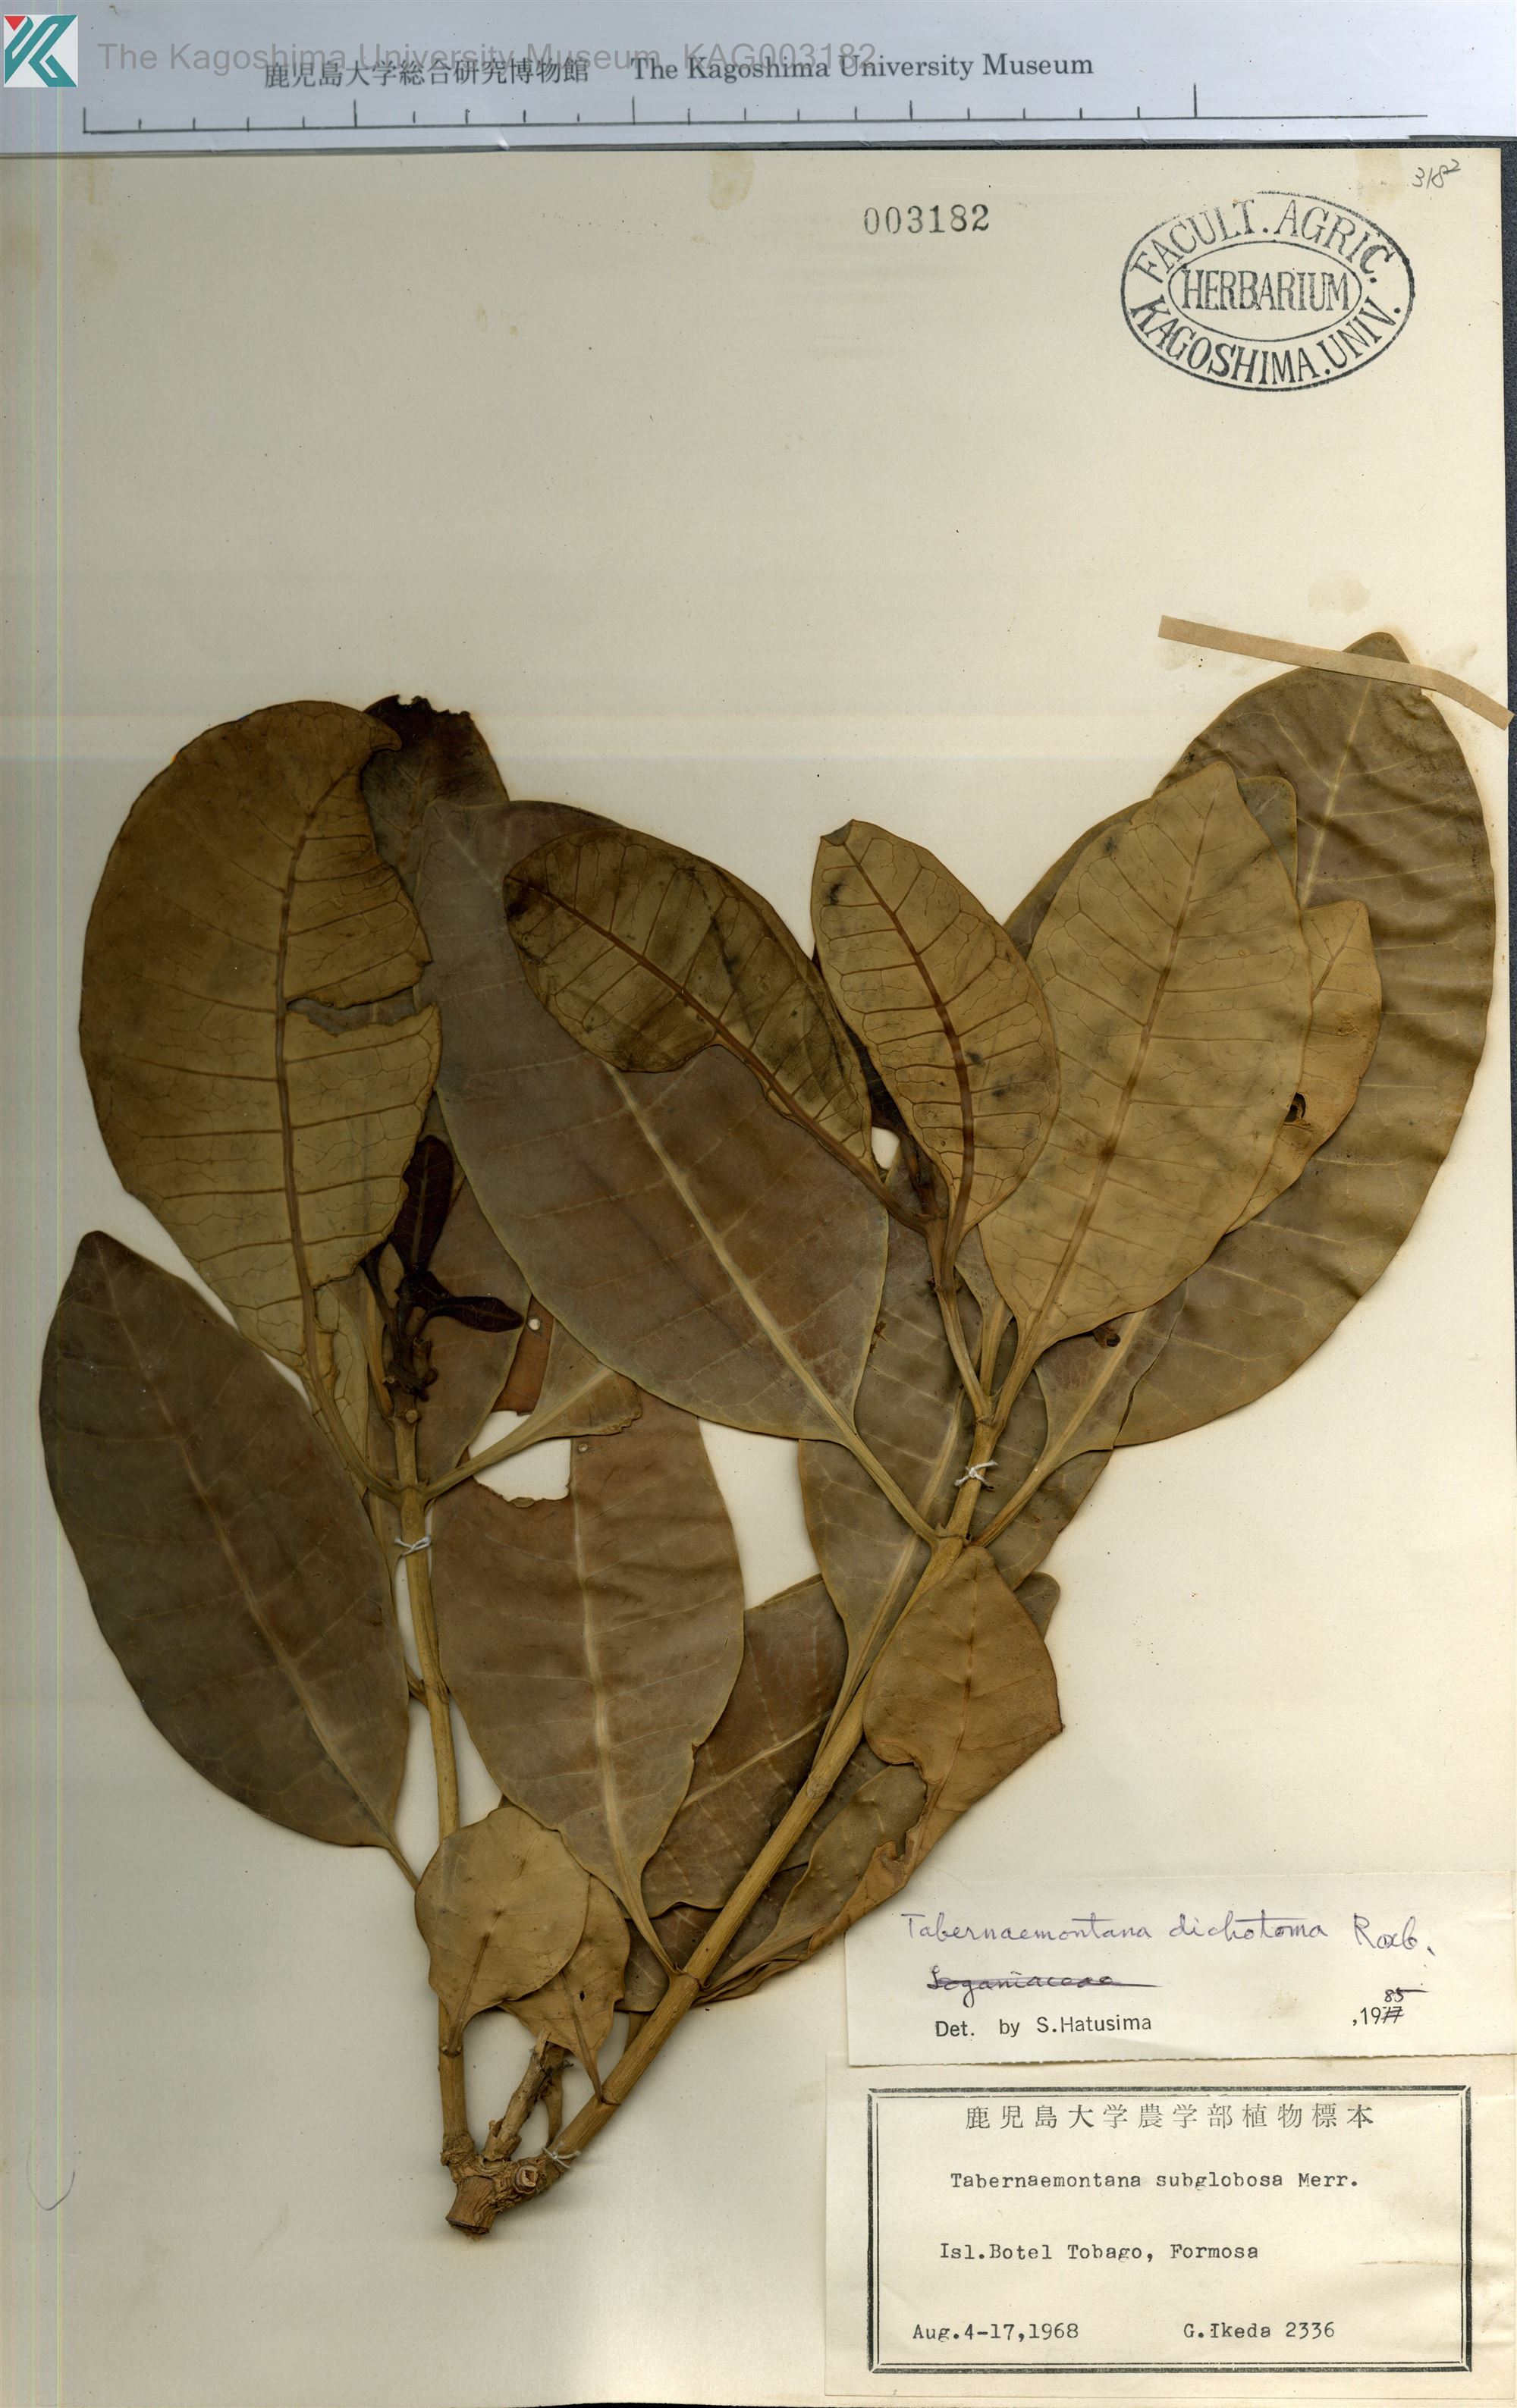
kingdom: Plantae
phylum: Tracheophyta
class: Magnoliopsida
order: Gentianales
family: Apocynaceae
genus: Tabernaemontana
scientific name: Tabernaemontana dichotoma
